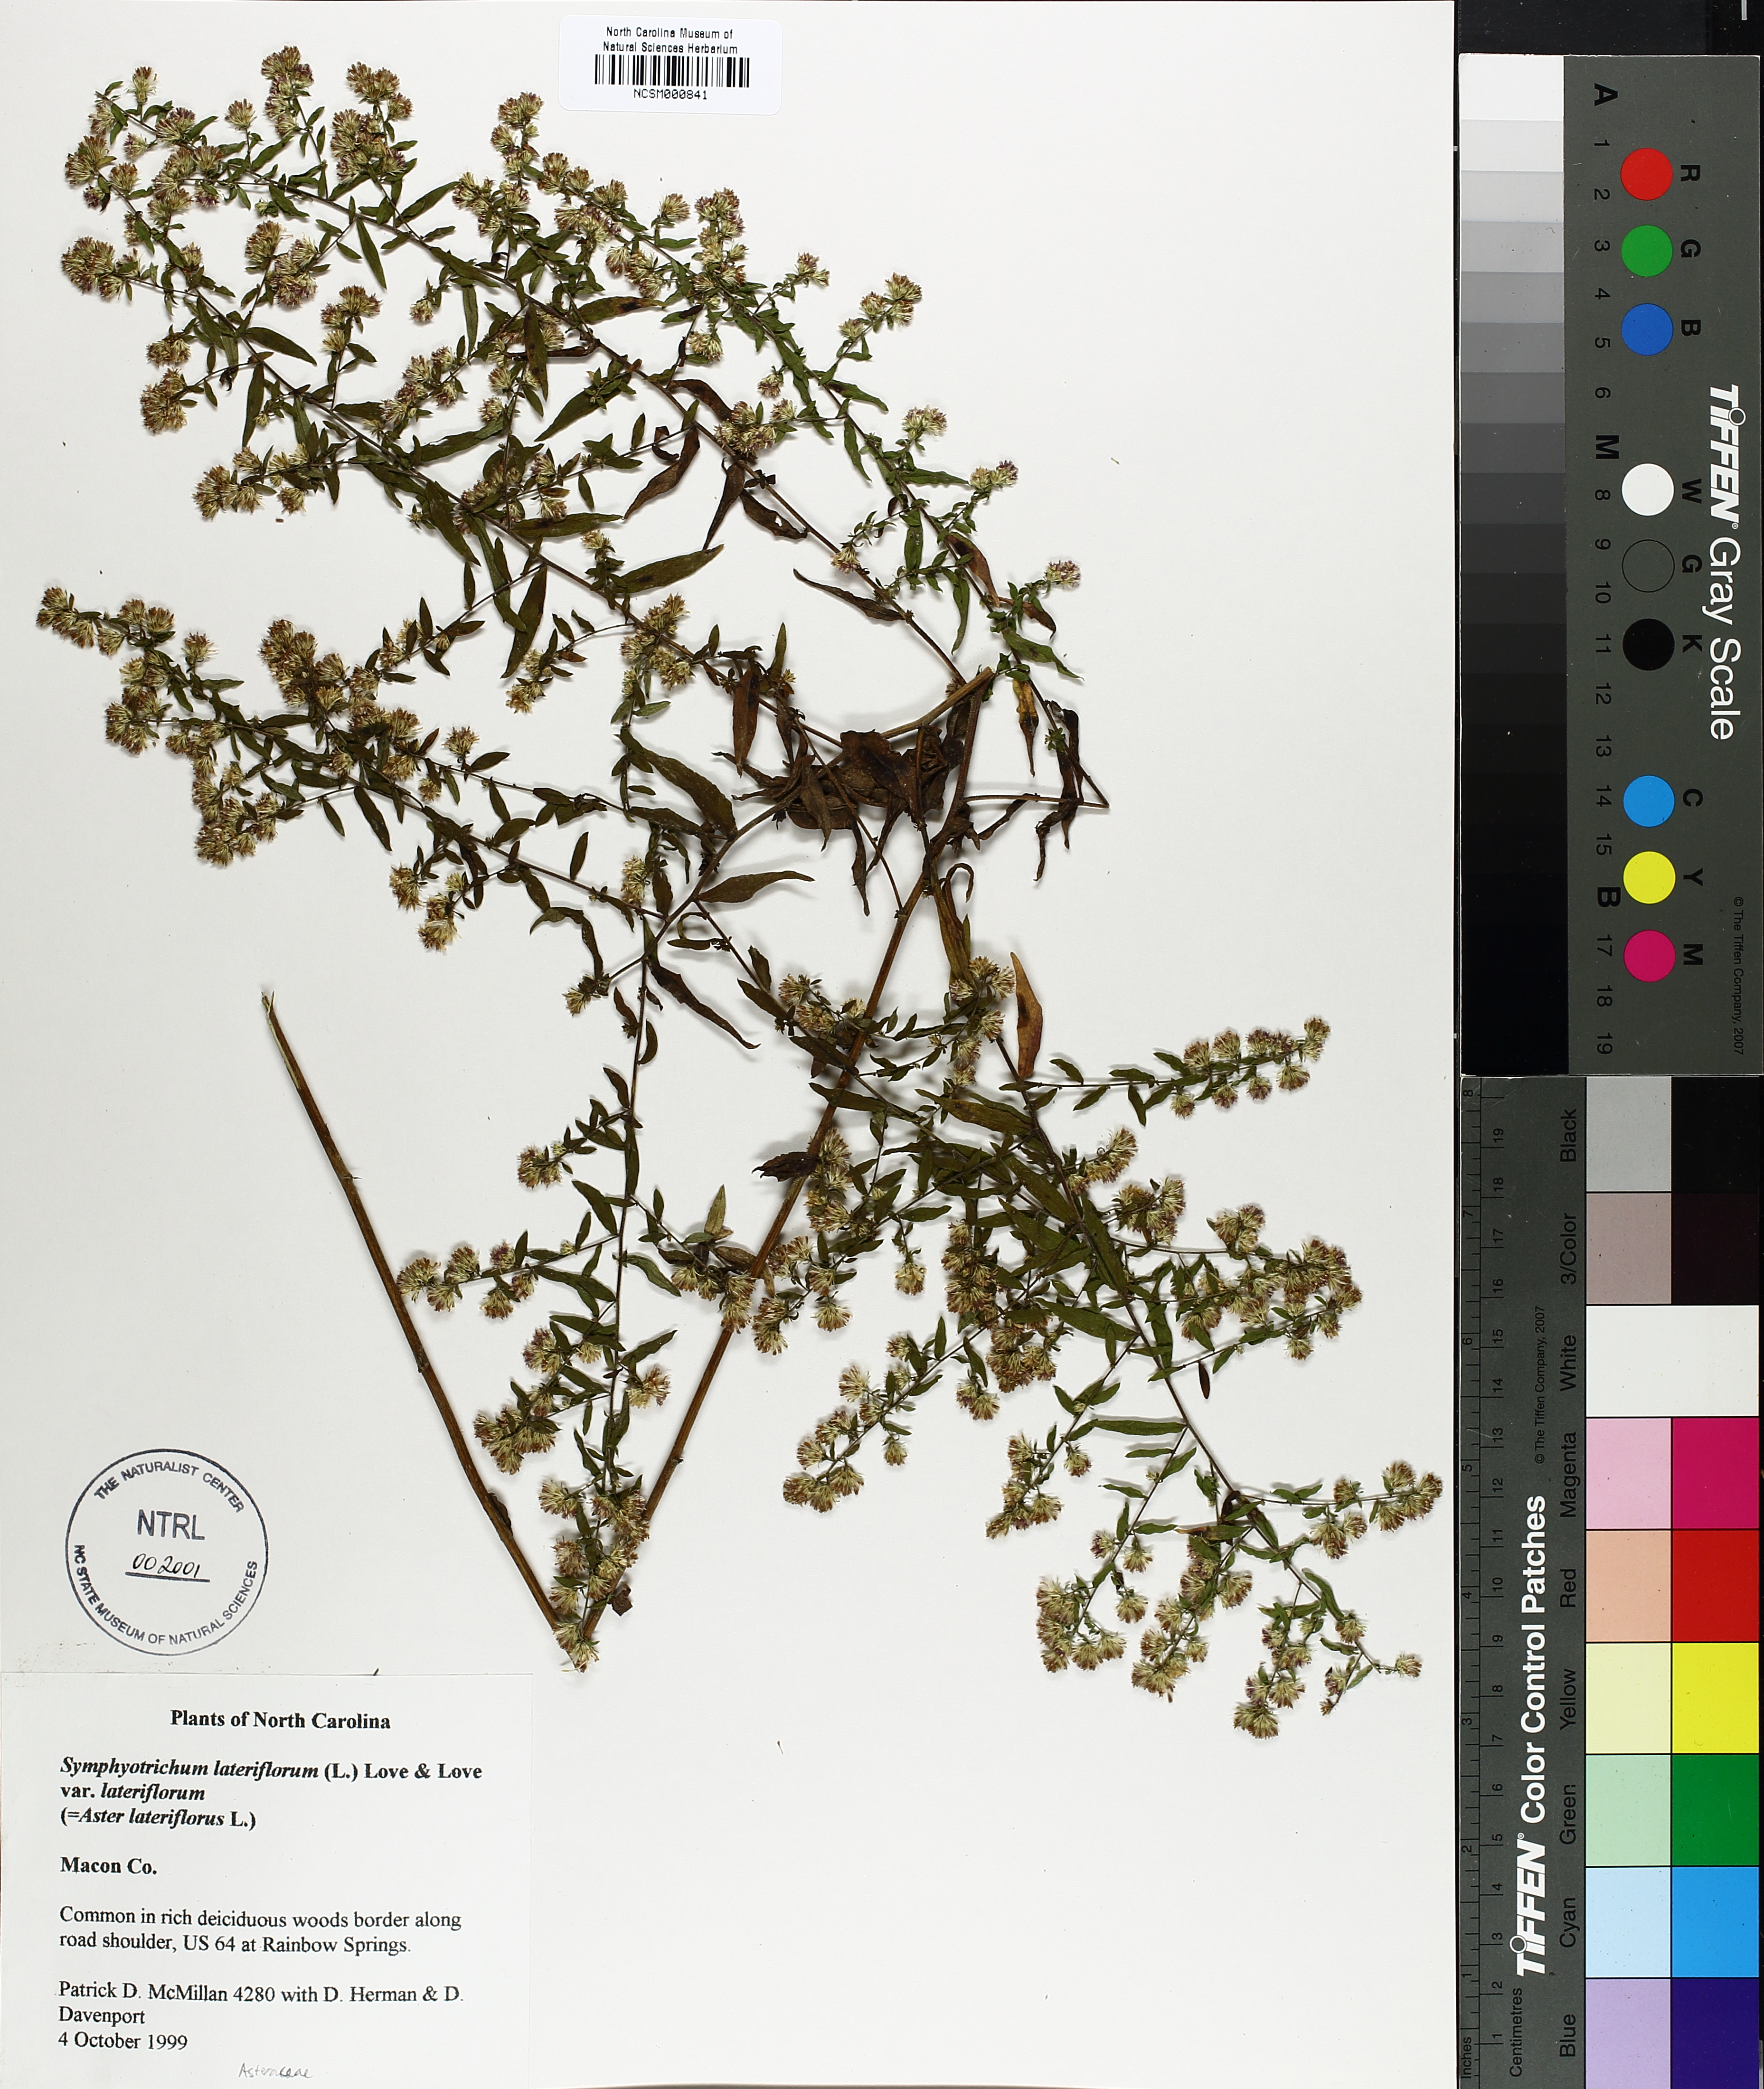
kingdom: Plantae
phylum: Tracheophyta
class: Magnoliopsida
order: Asterales
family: Asteraceae
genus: Symphyotrichum
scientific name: Symphyotrichum lateriflorum
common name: Calico aster
